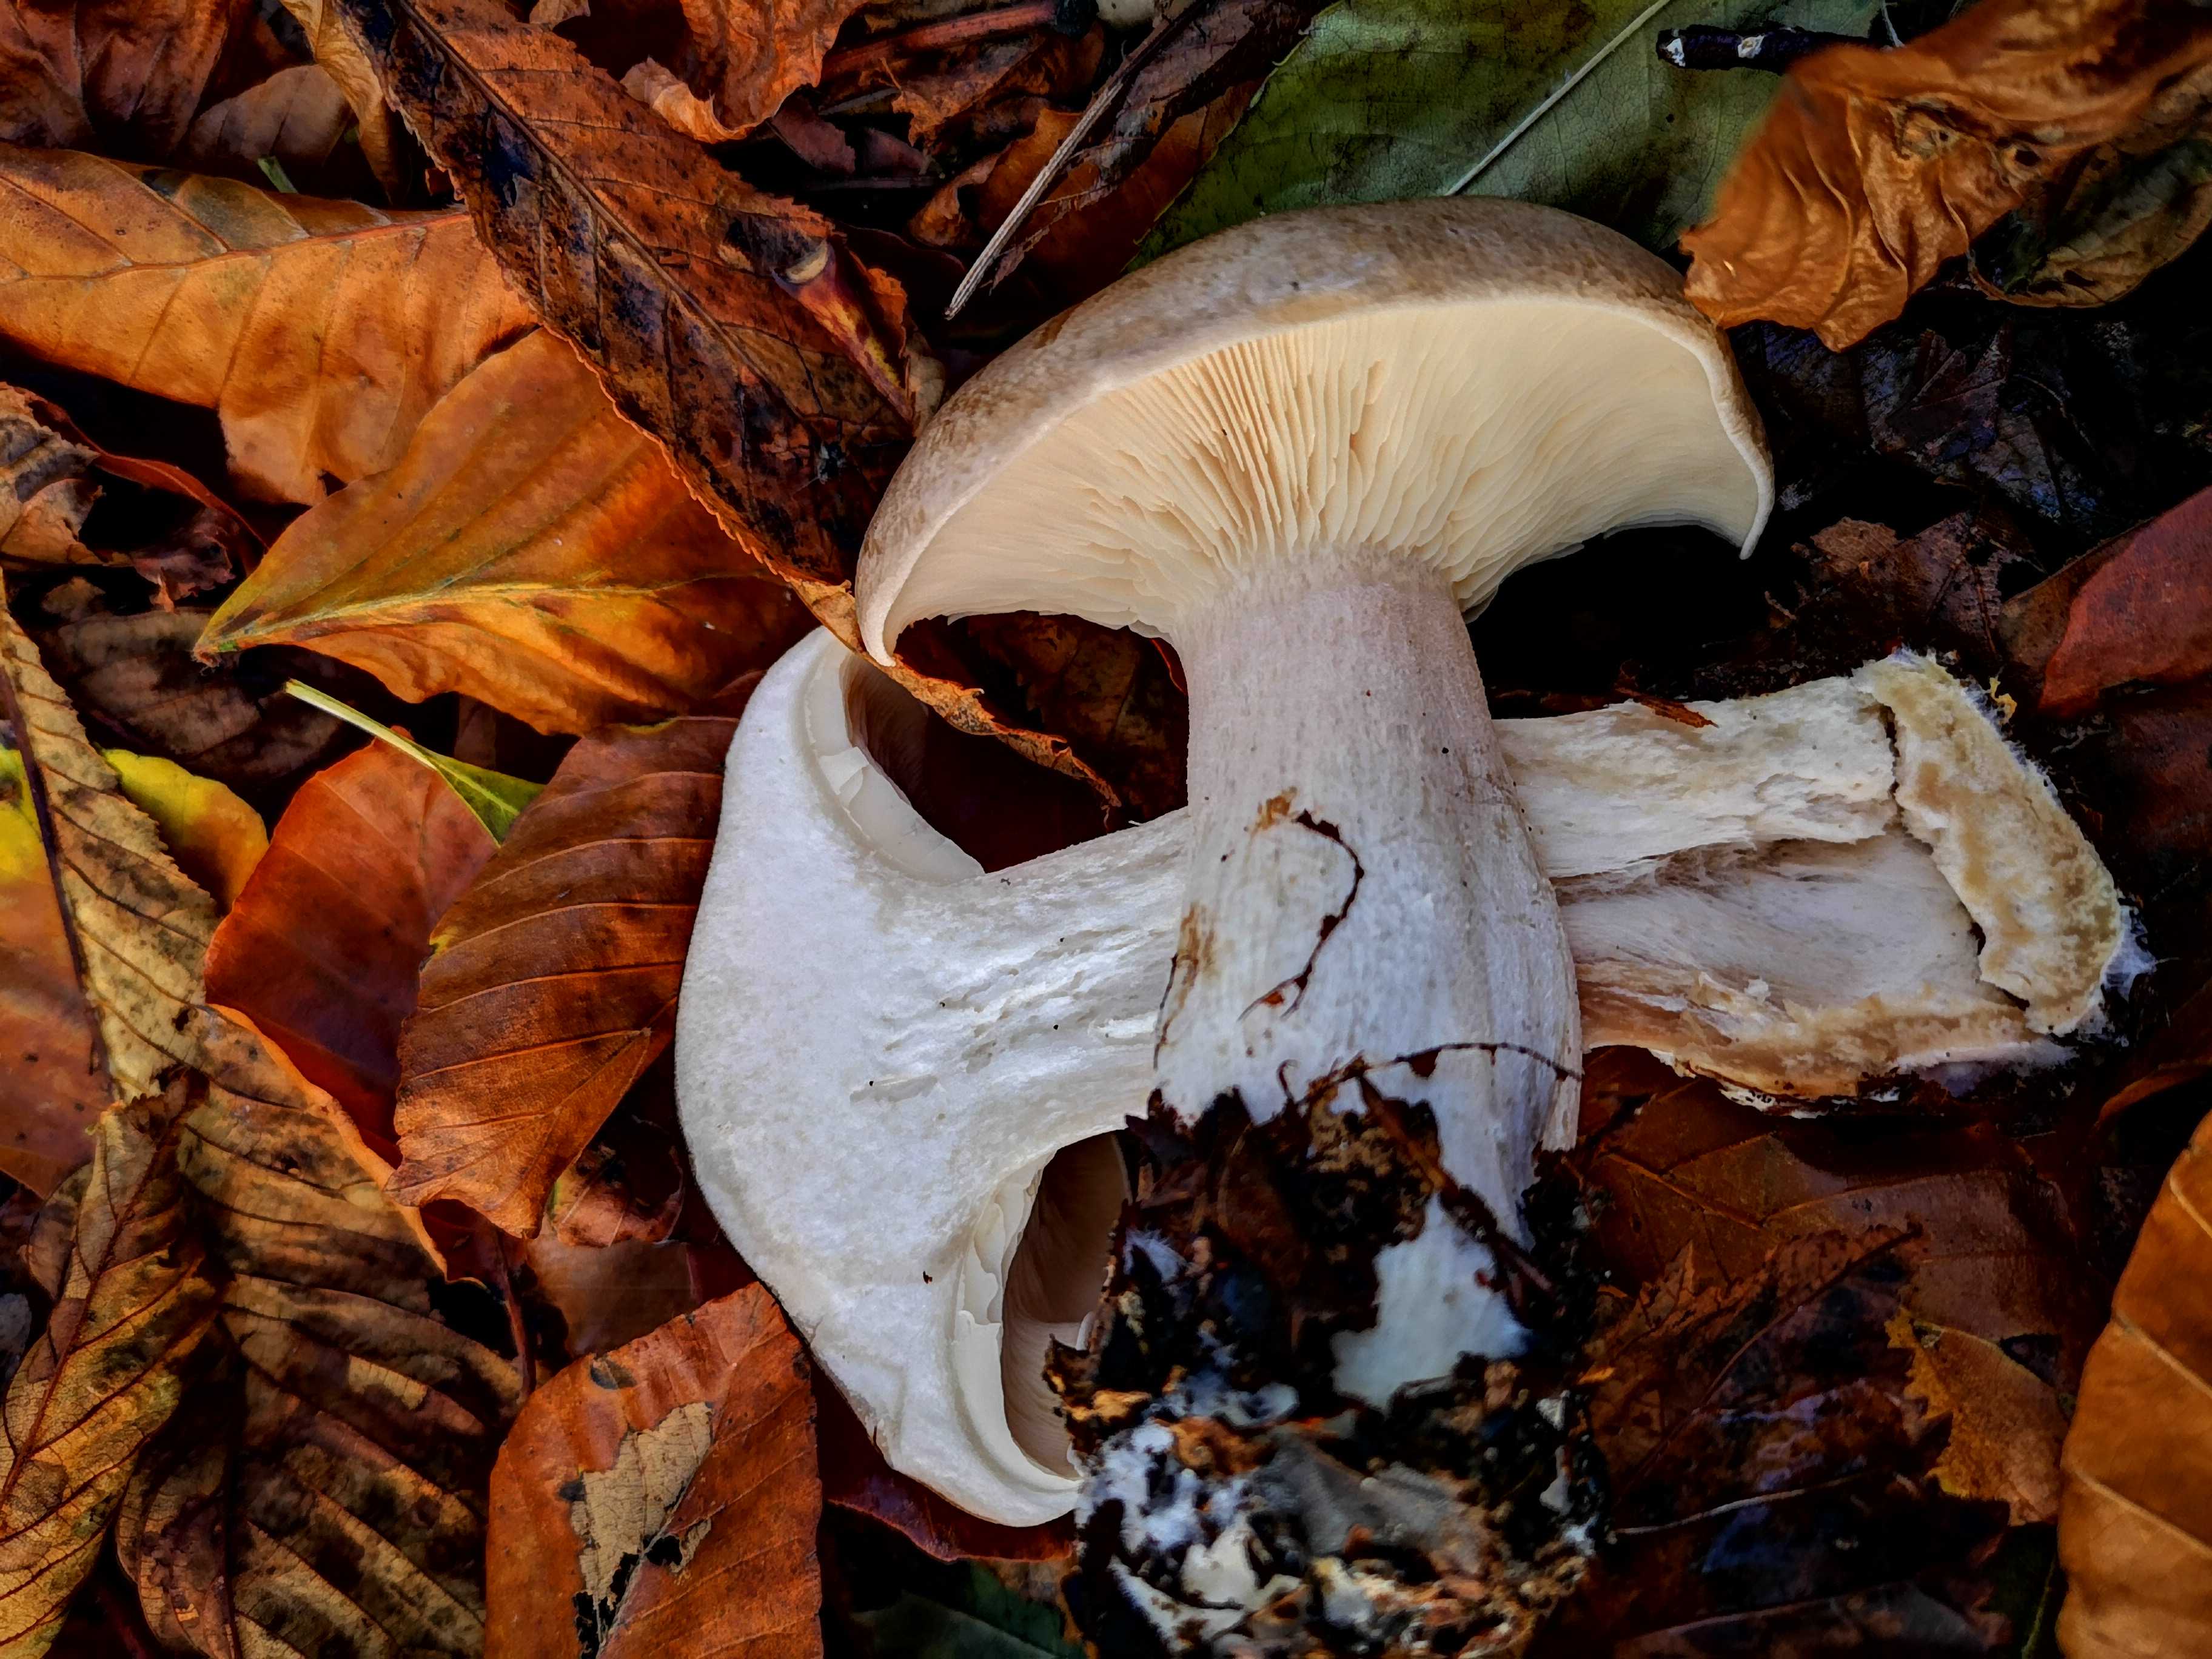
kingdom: Fungi
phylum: Basidiomycota
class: Agaricomycetes
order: Agaricales
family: Tricholomataceae
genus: Clitocybe
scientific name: Clitocybe nebularis
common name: tåge-tragthat
